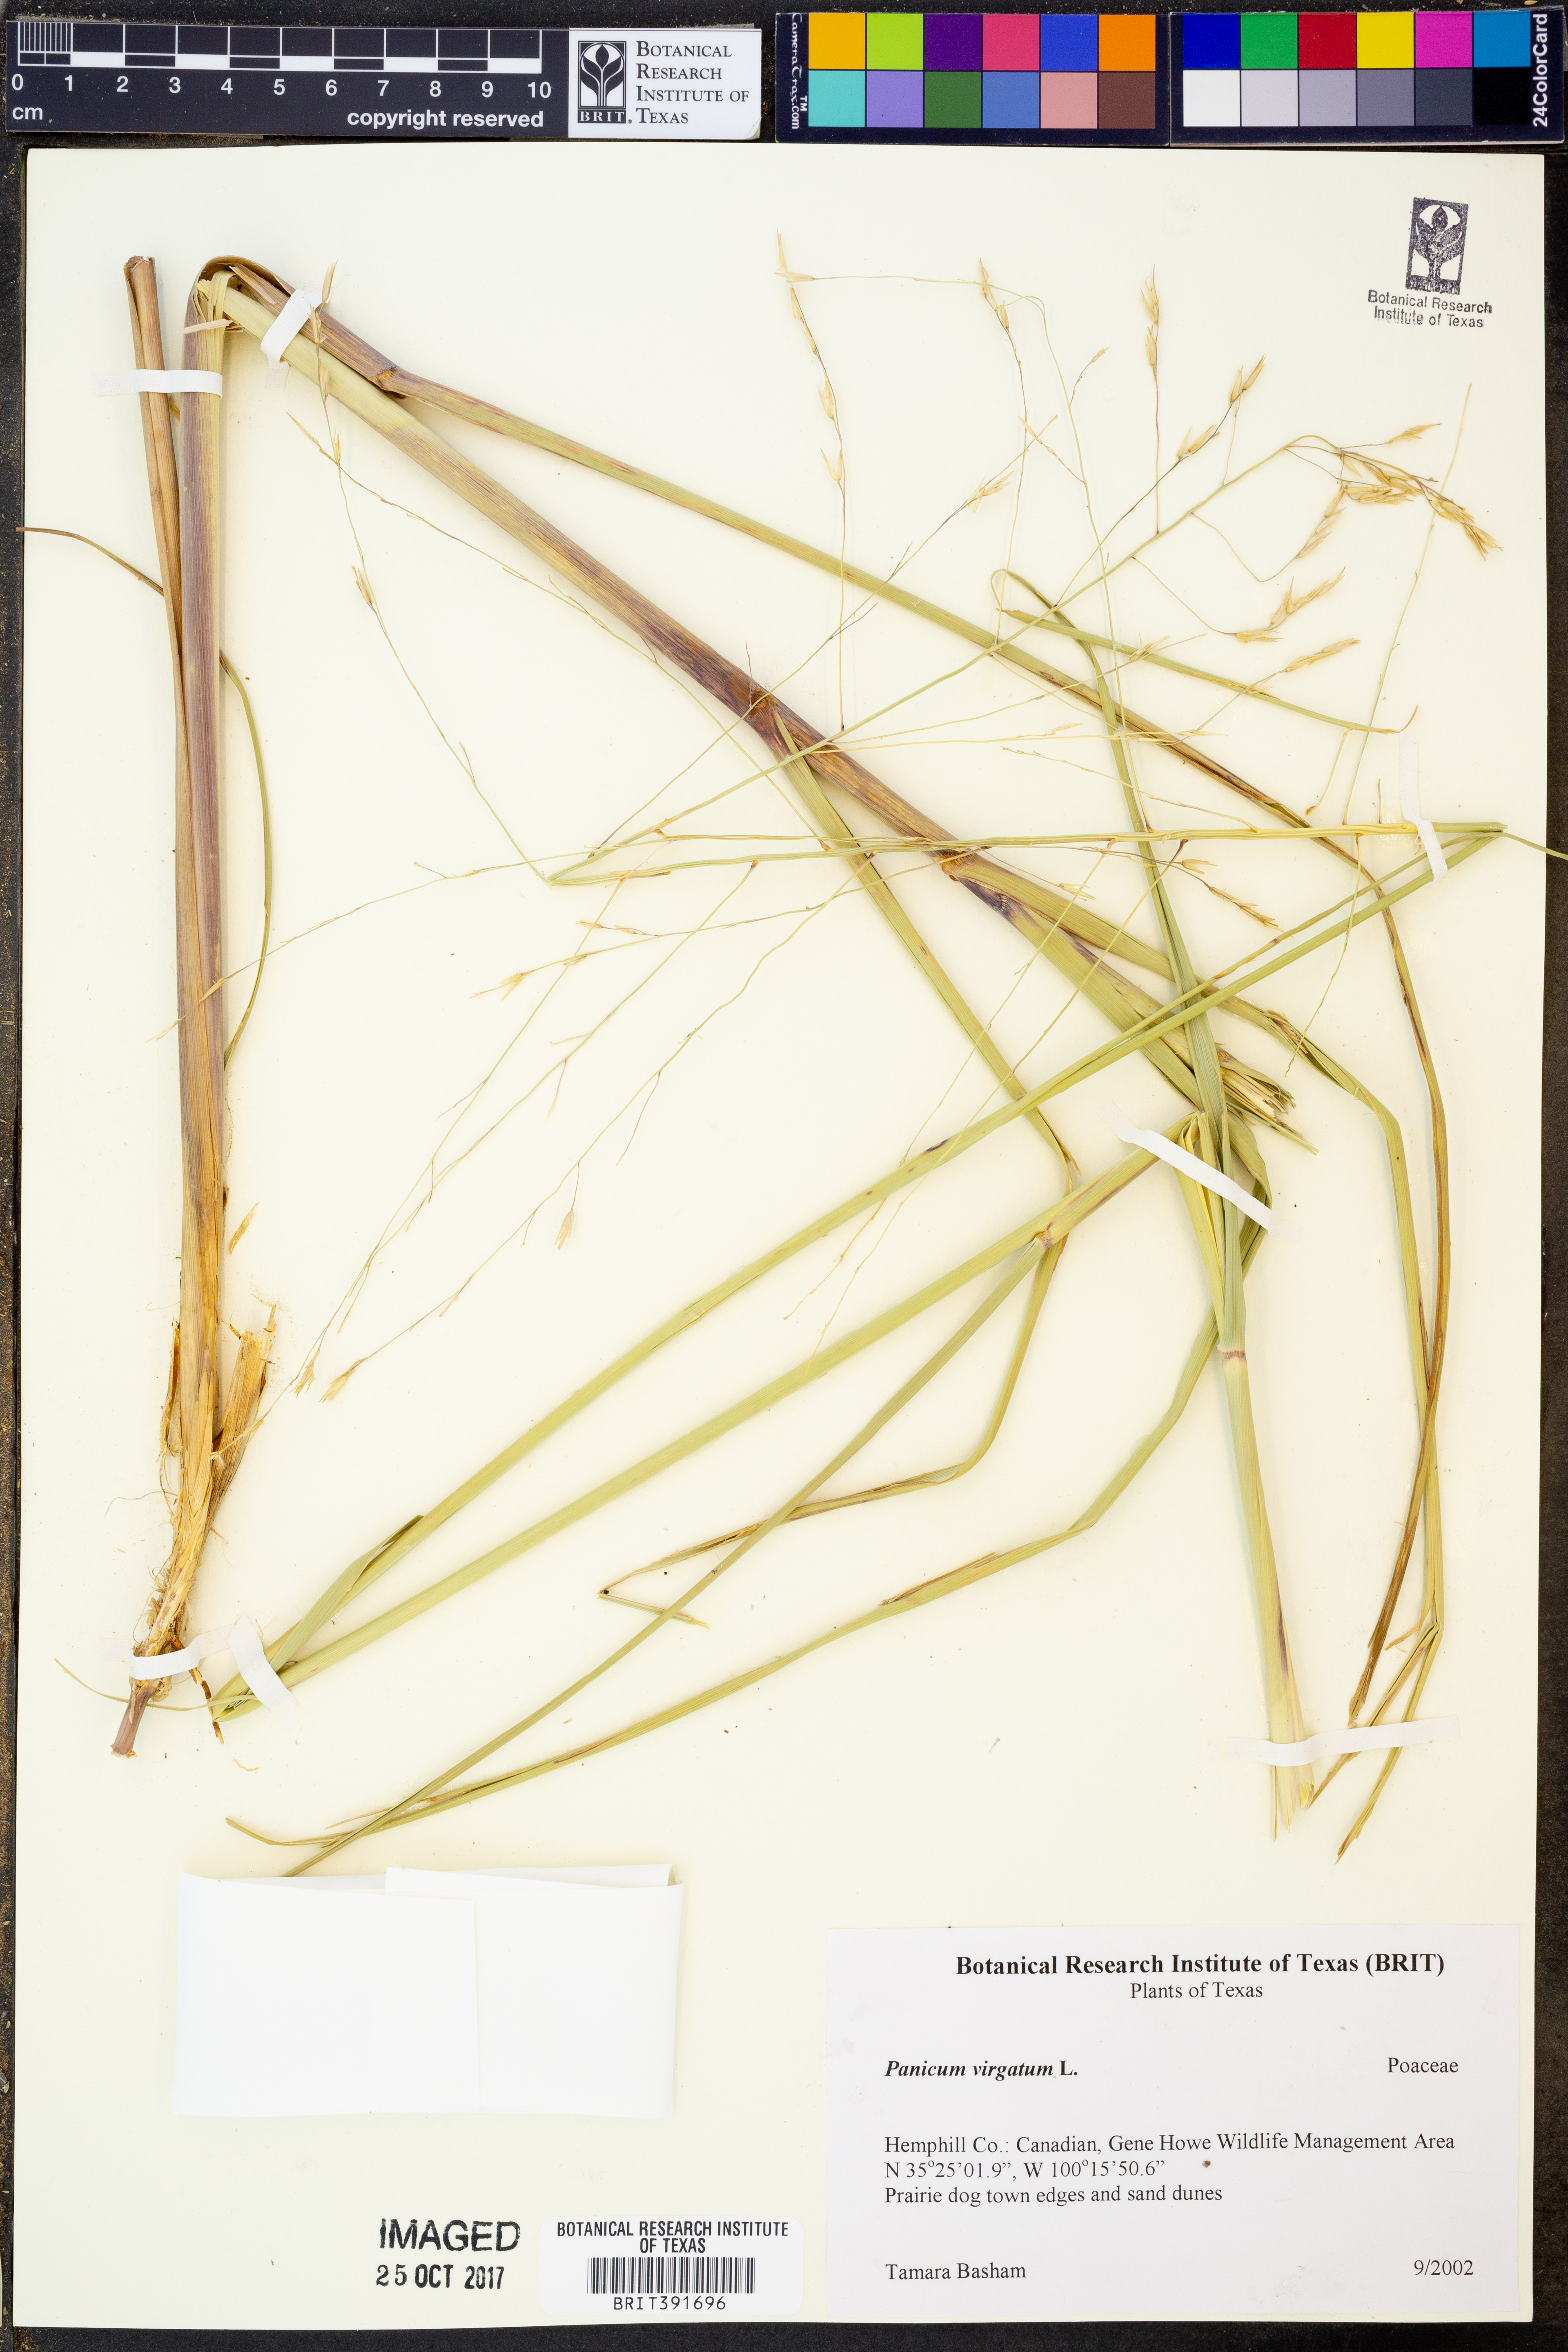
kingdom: Plantae
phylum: Tracheophyta
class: Liliopsida
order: Poales
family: Poaceae
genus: Panicum
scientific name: Panicum virgatum
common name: Switchgrass
